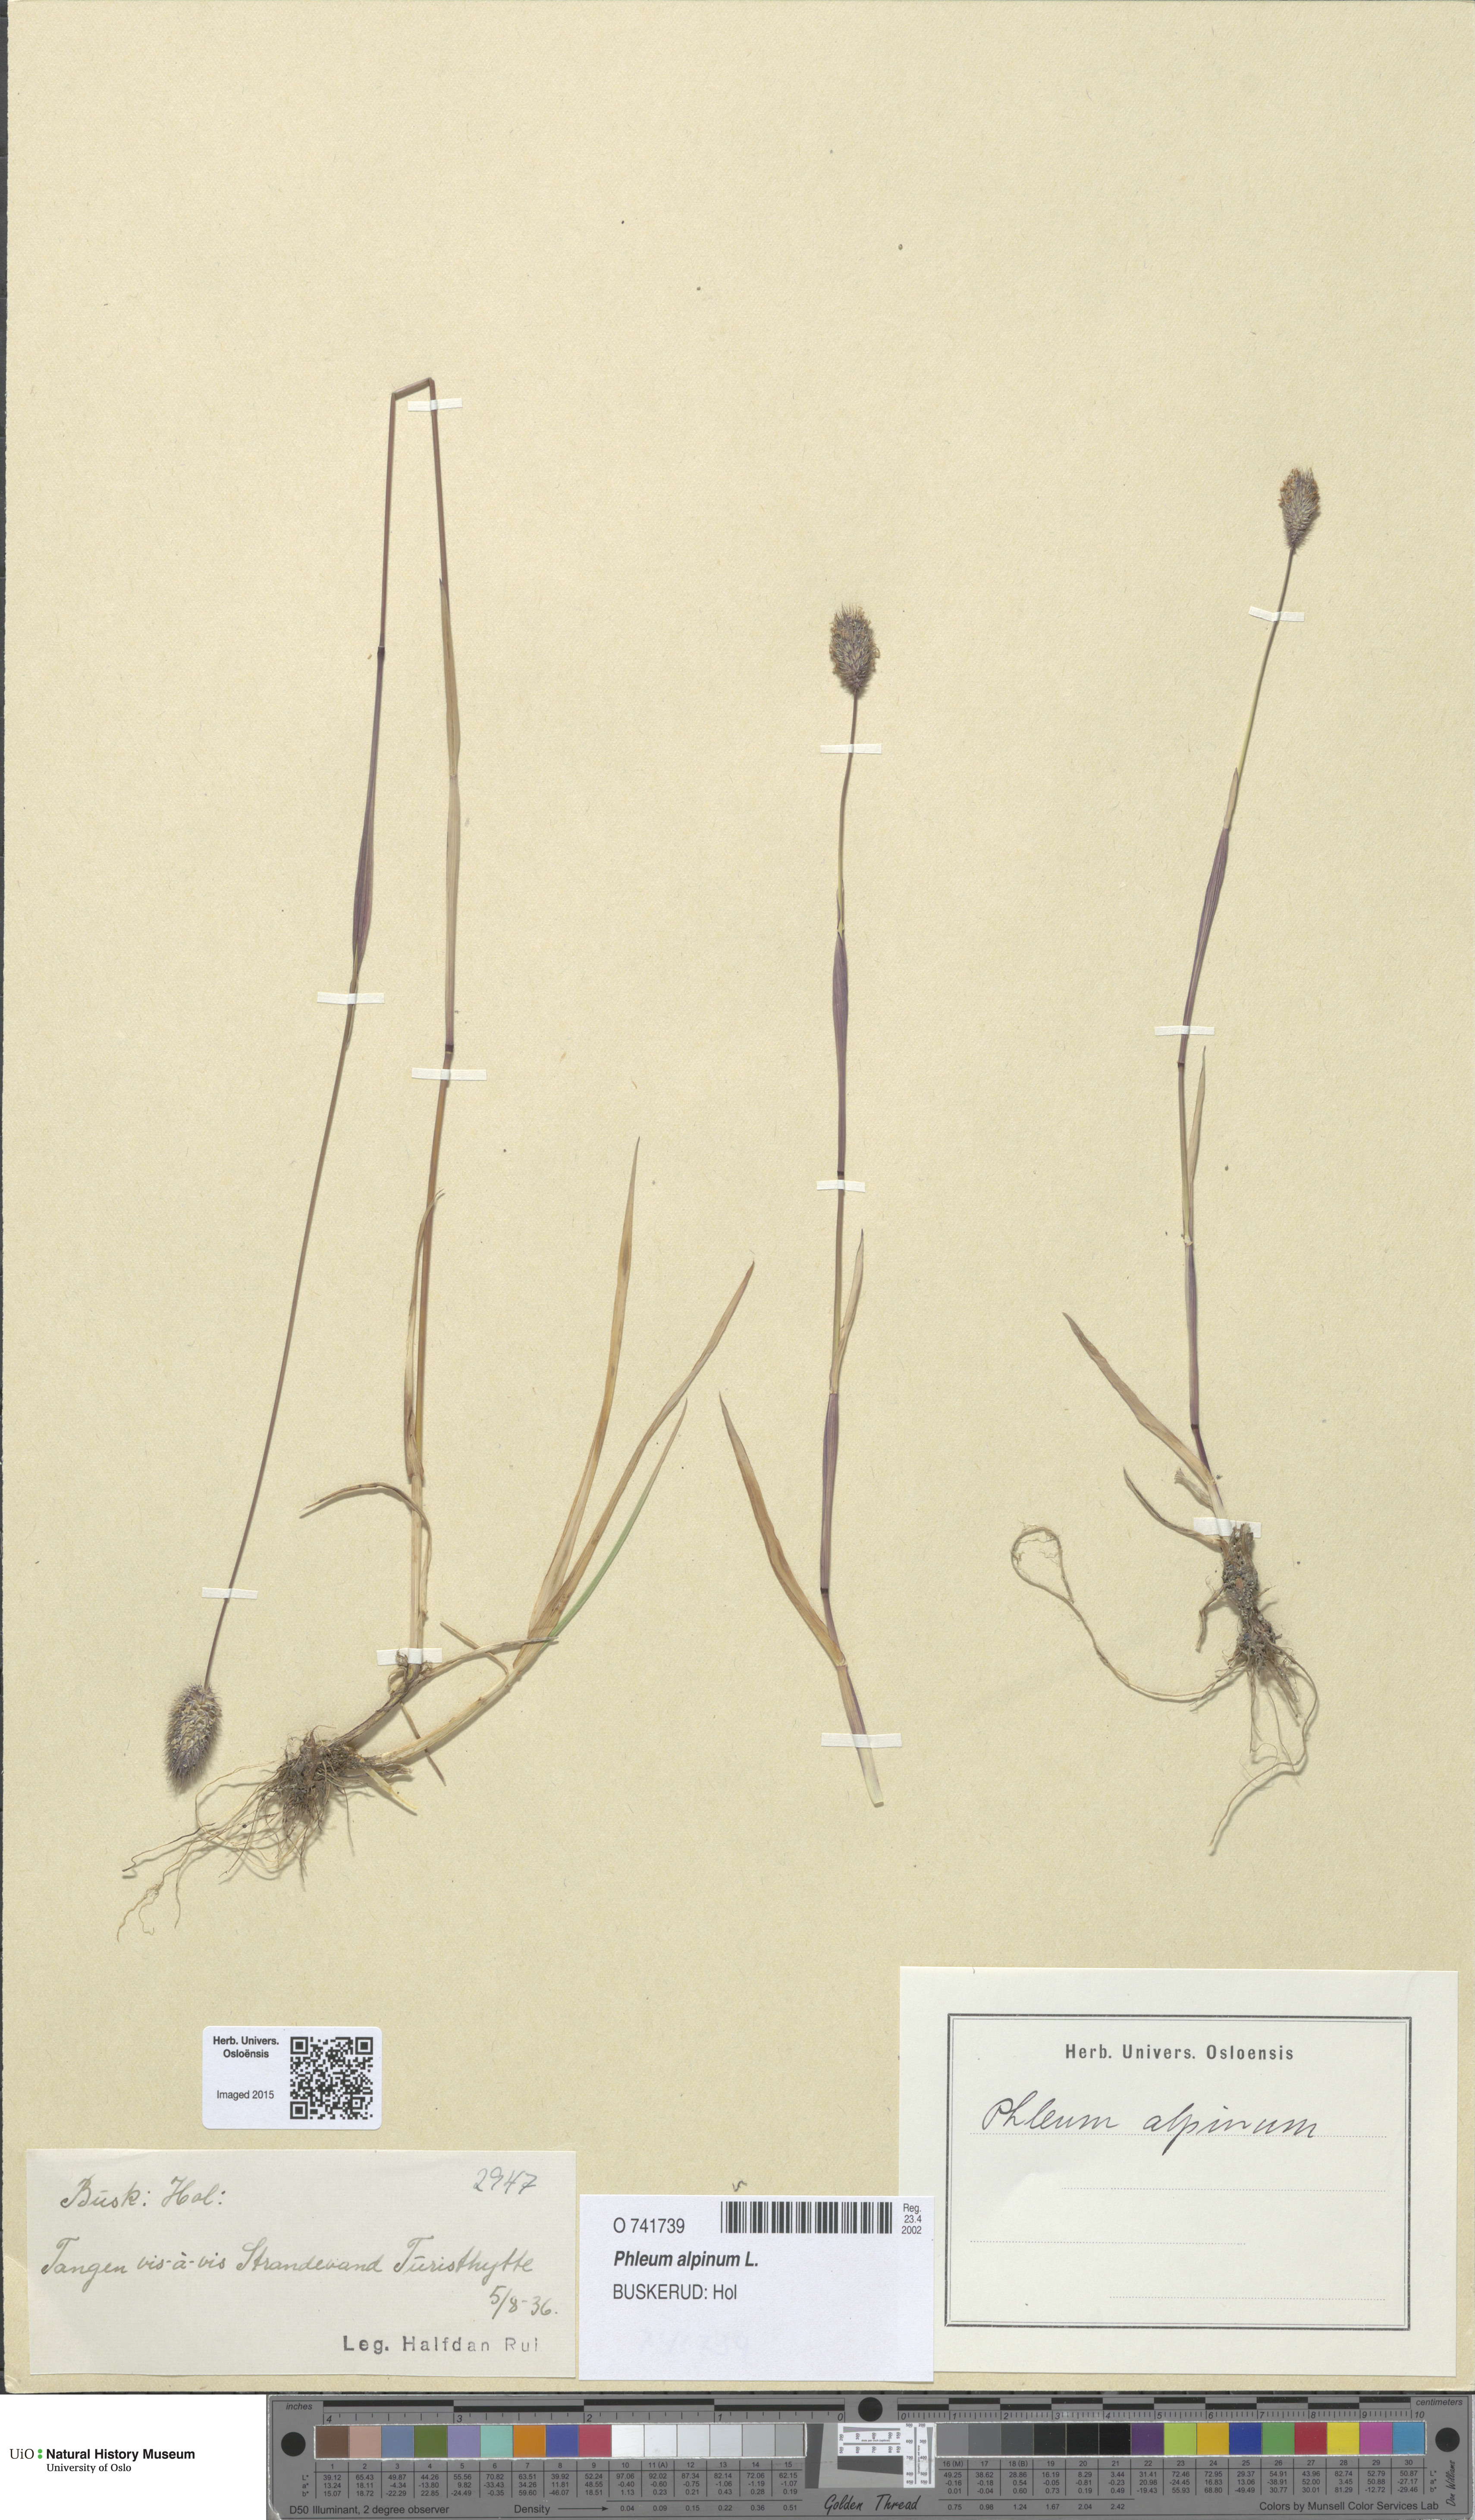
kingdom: Plantae
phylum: Tracheophyta
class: Liliopsida
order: Poales
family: Poaceae
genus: Phleum
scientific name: Phleum alpinum
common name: Alpine cat's-tail
